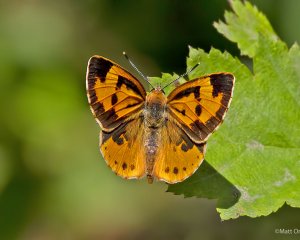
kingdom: Animalia
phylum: Arthropoda
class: Insecta
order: Lepidoptera
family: Lycaenidae
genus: Feniseca
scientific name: Feniseca tarquinius
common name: Harvester
